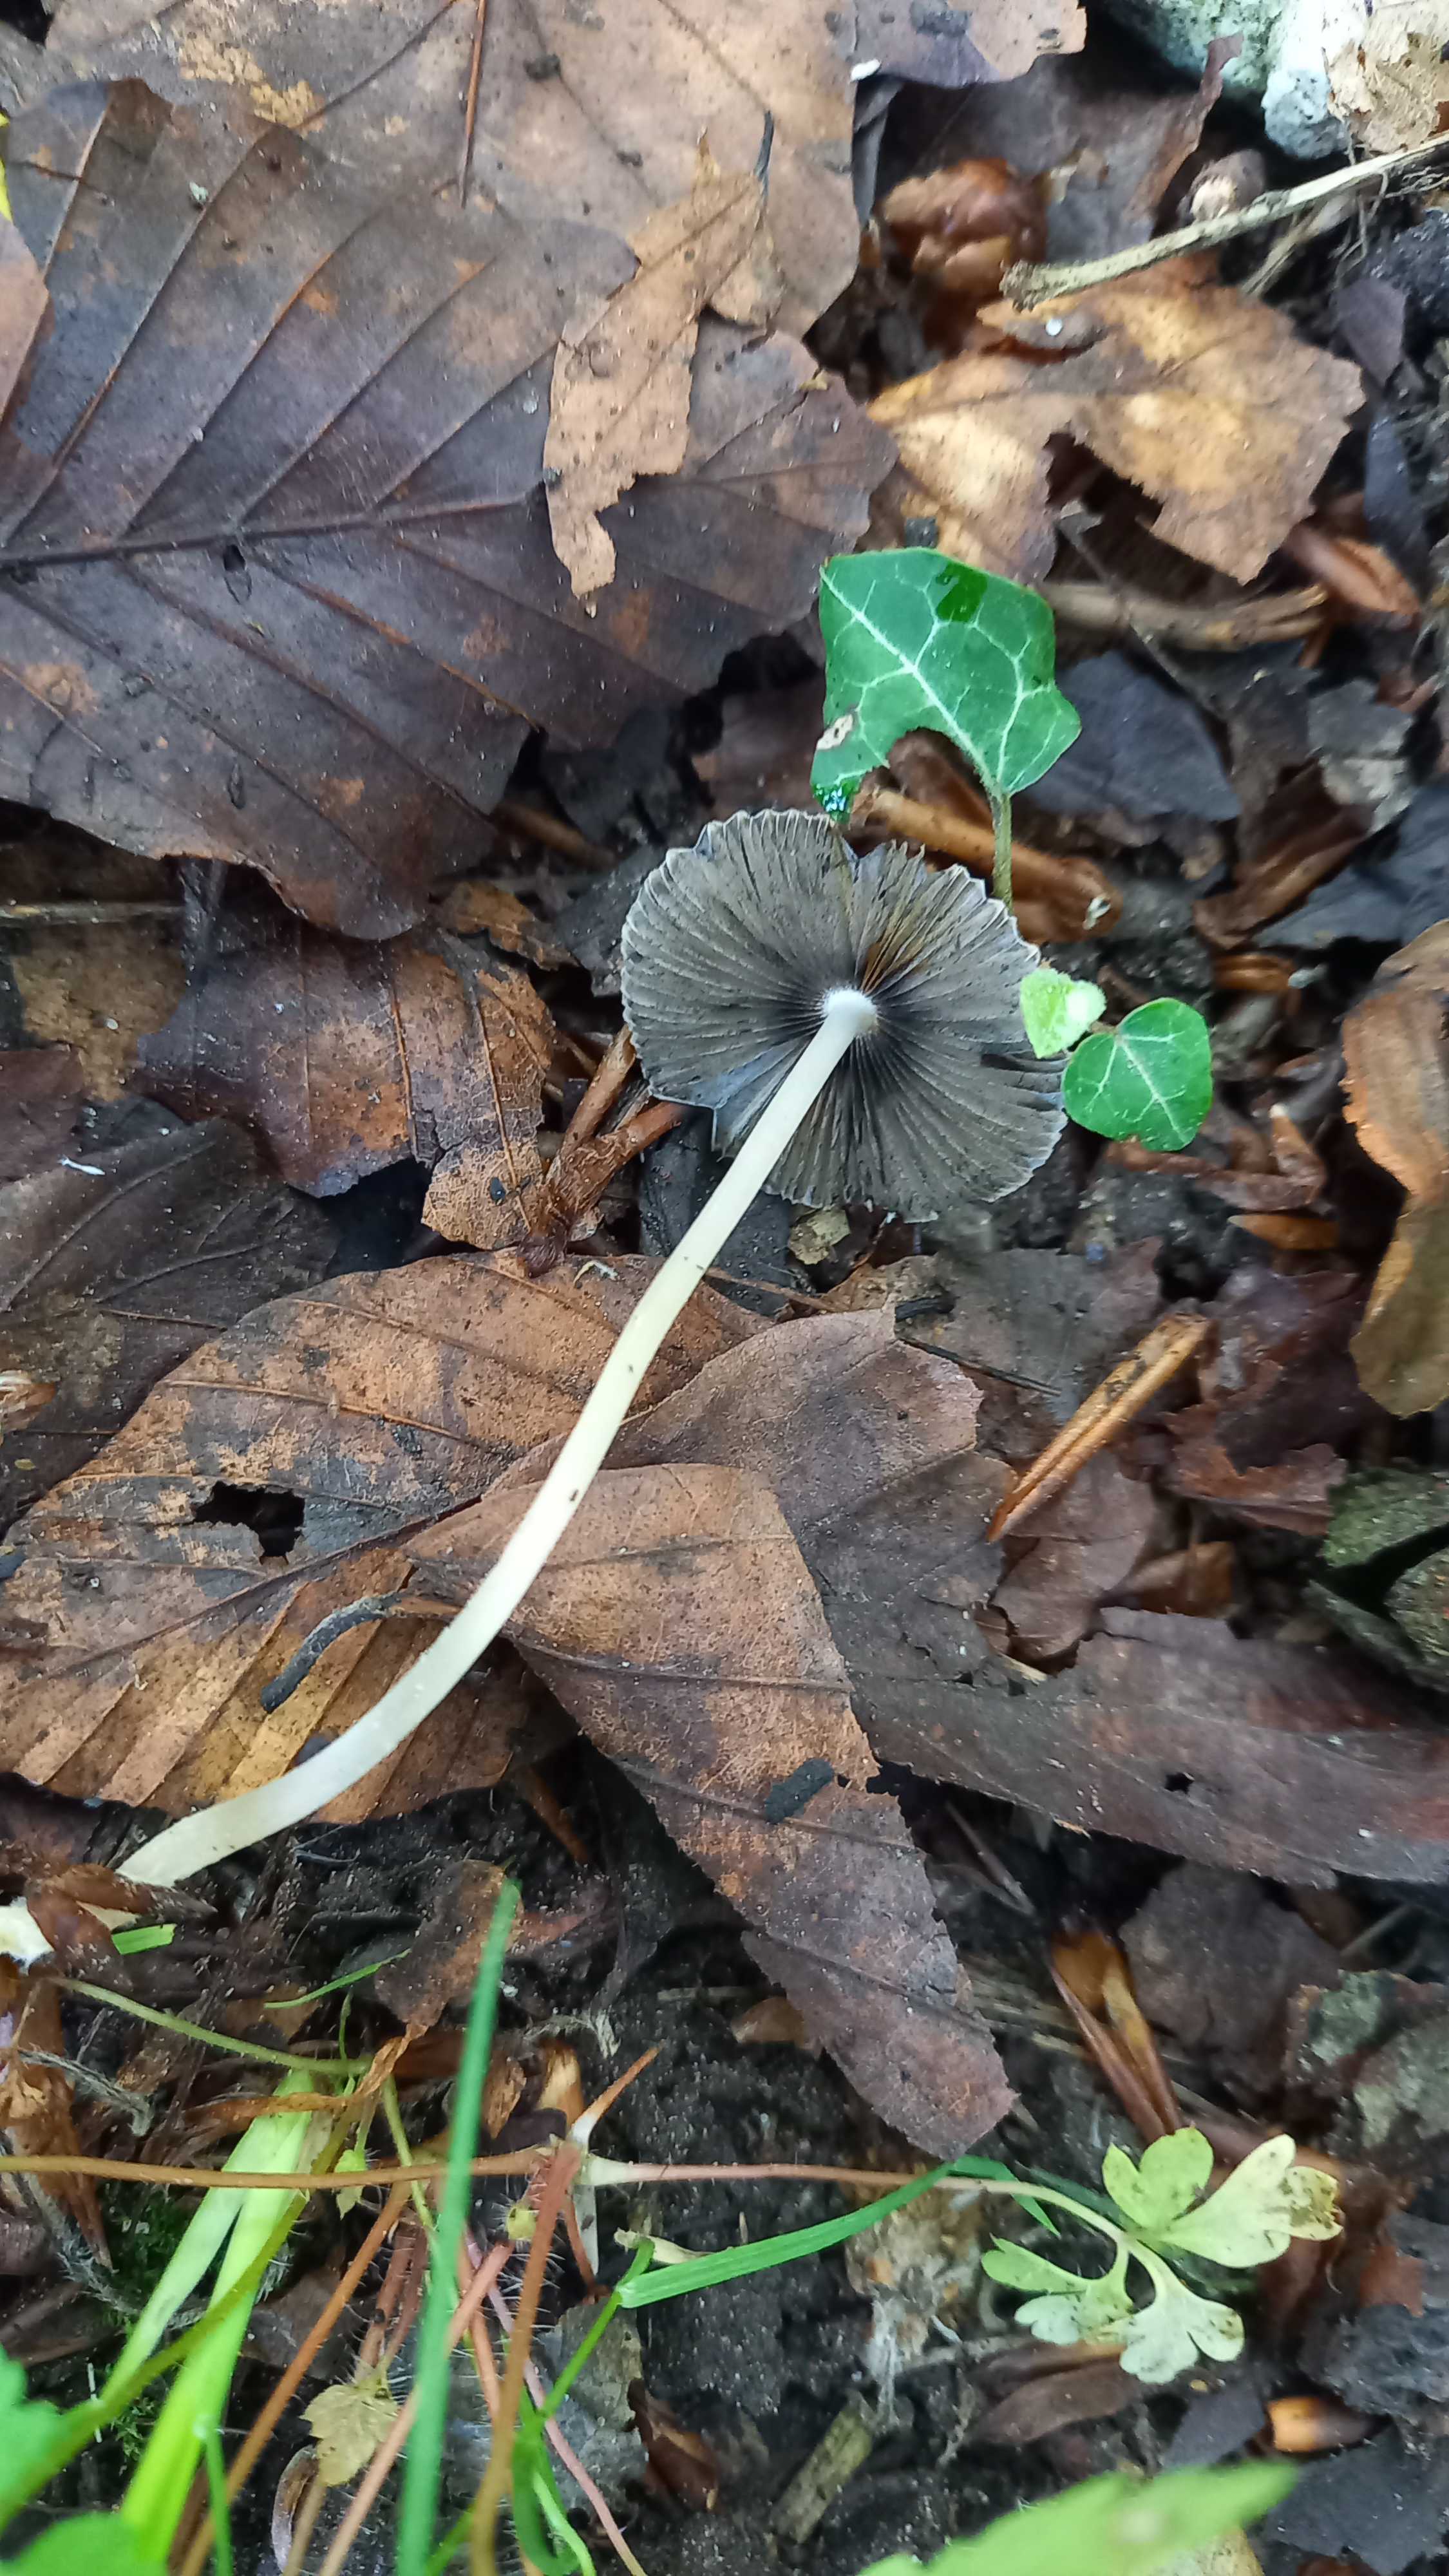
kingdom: Fungi
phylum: Basidiomycota
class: Agaricomycetes
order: Agaricales
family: Psathyrellaceae
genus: Parasola
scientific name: Parasola
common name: hjulhat
